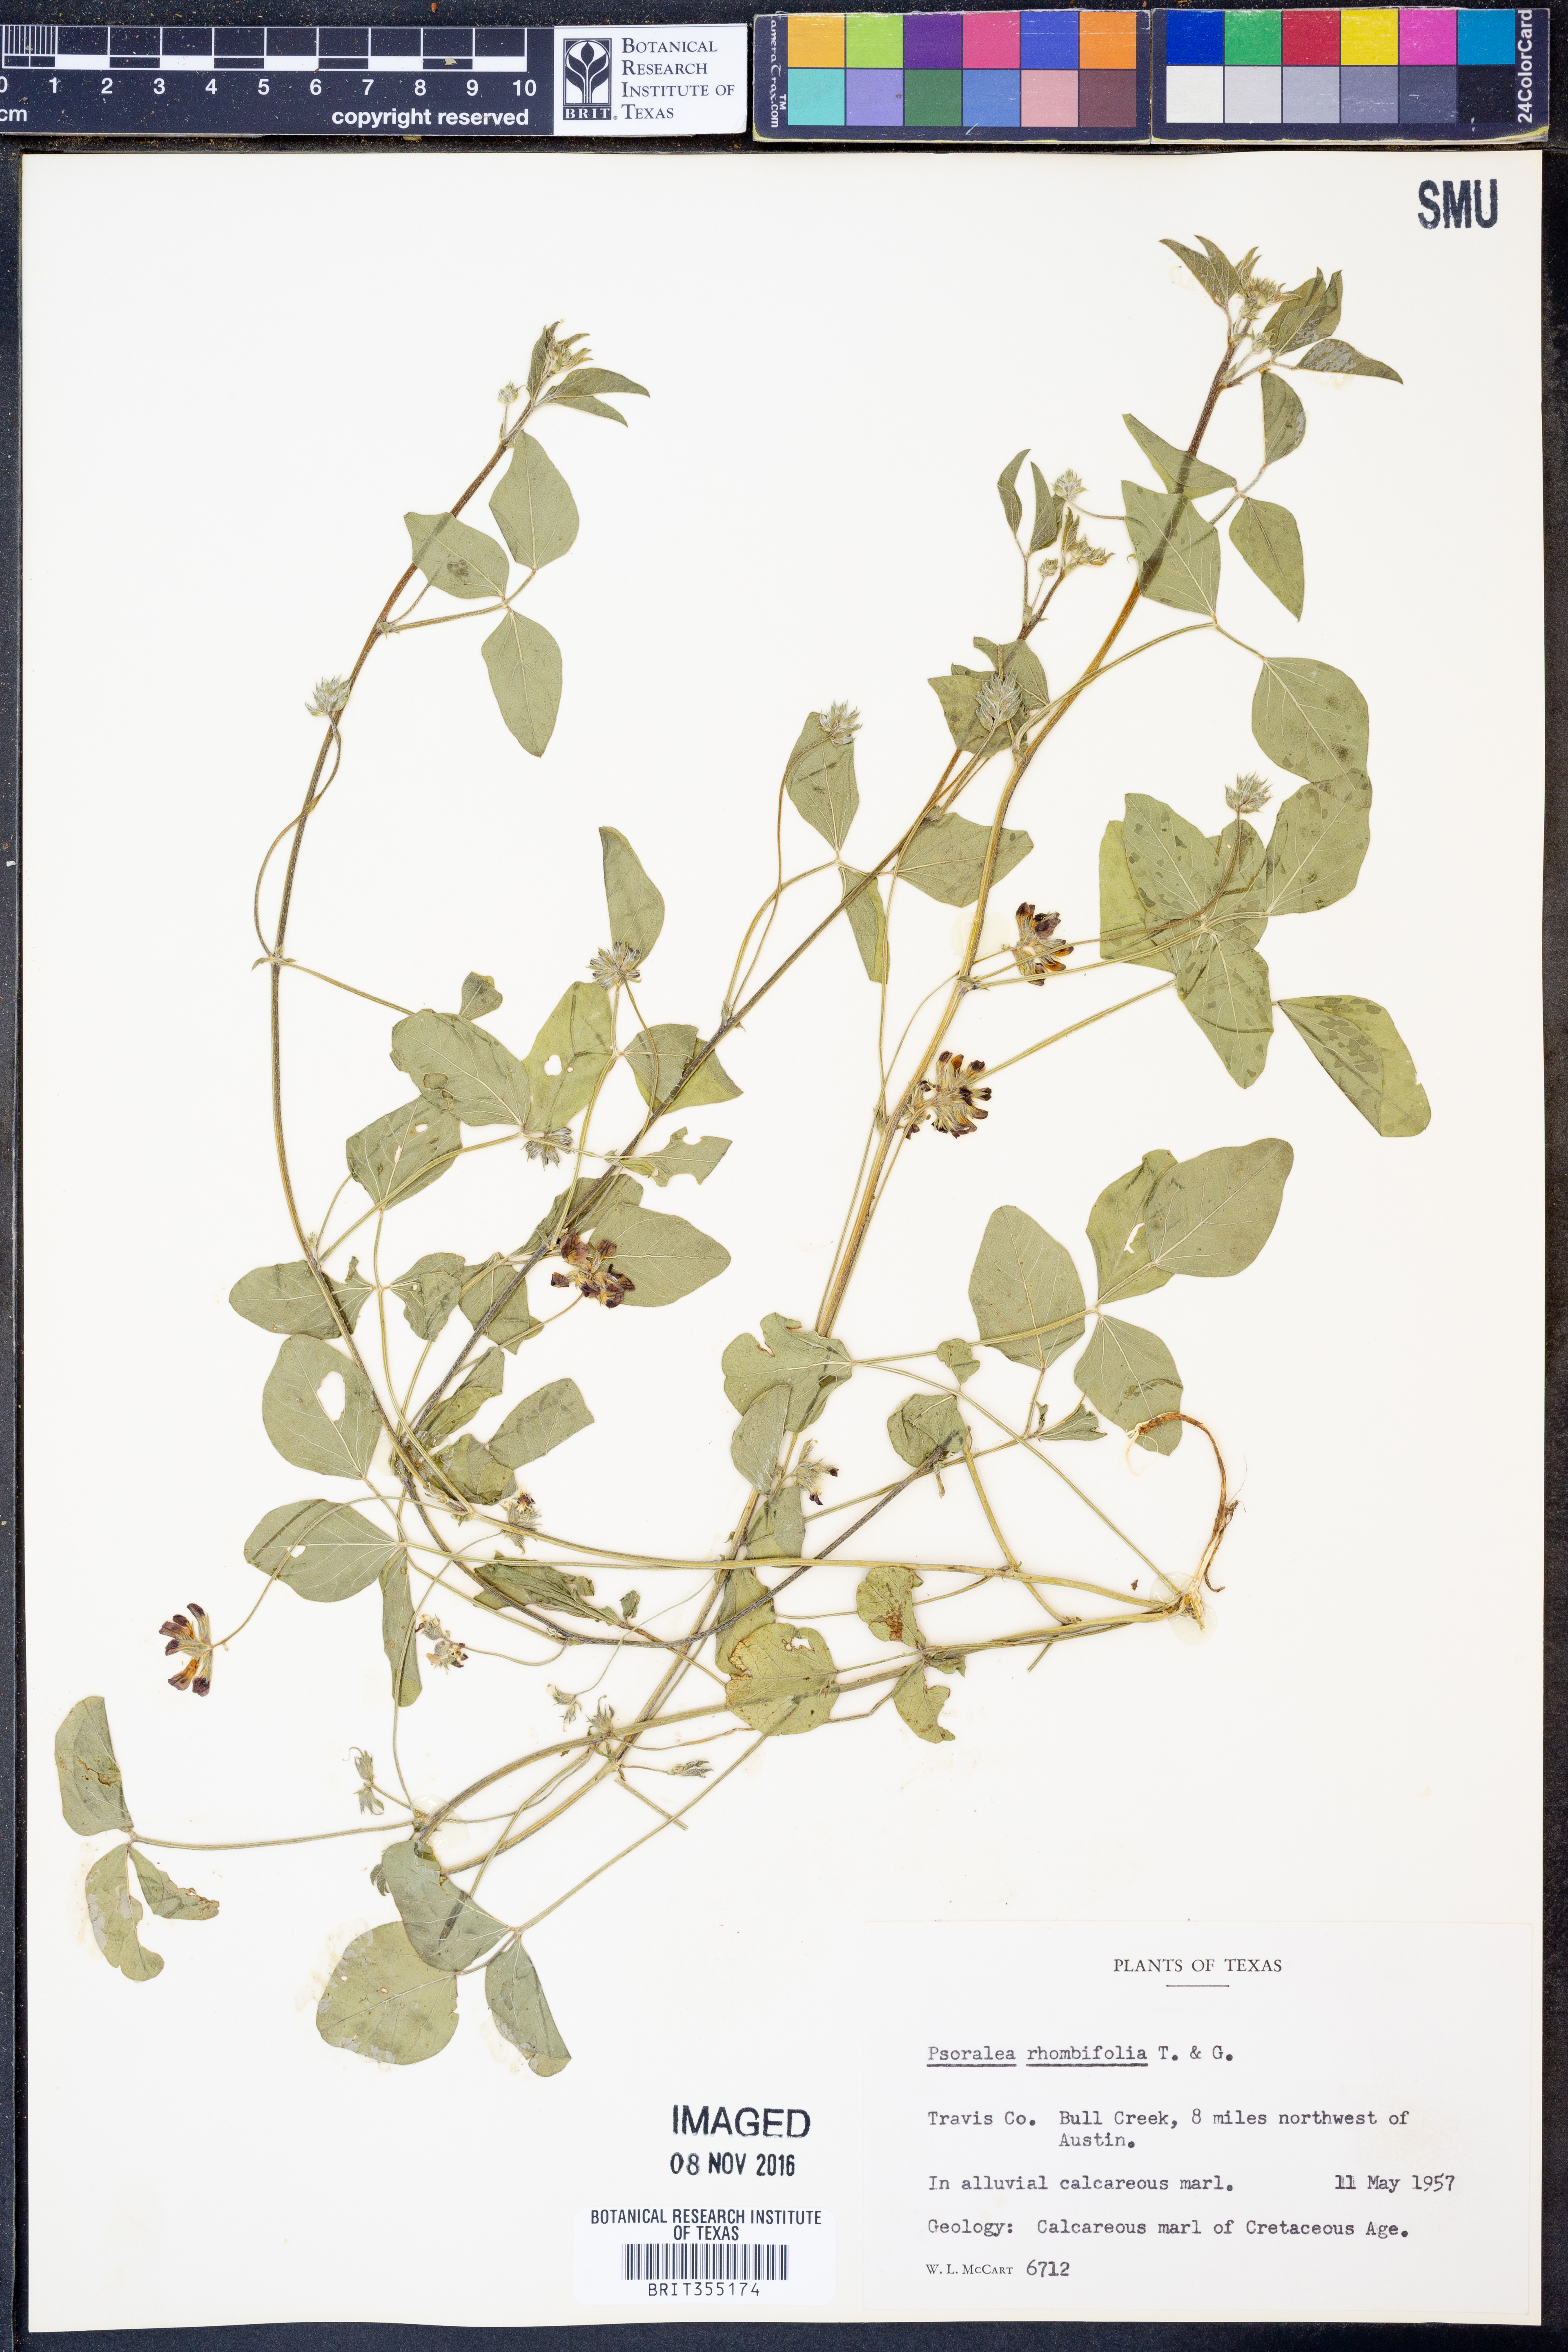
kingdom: Plantae
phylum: Tracheophyta
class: Magnoliopsida
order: Fabales
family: Fabaceae
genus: Pediomelum
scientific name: Pediomelum rhombifolium
